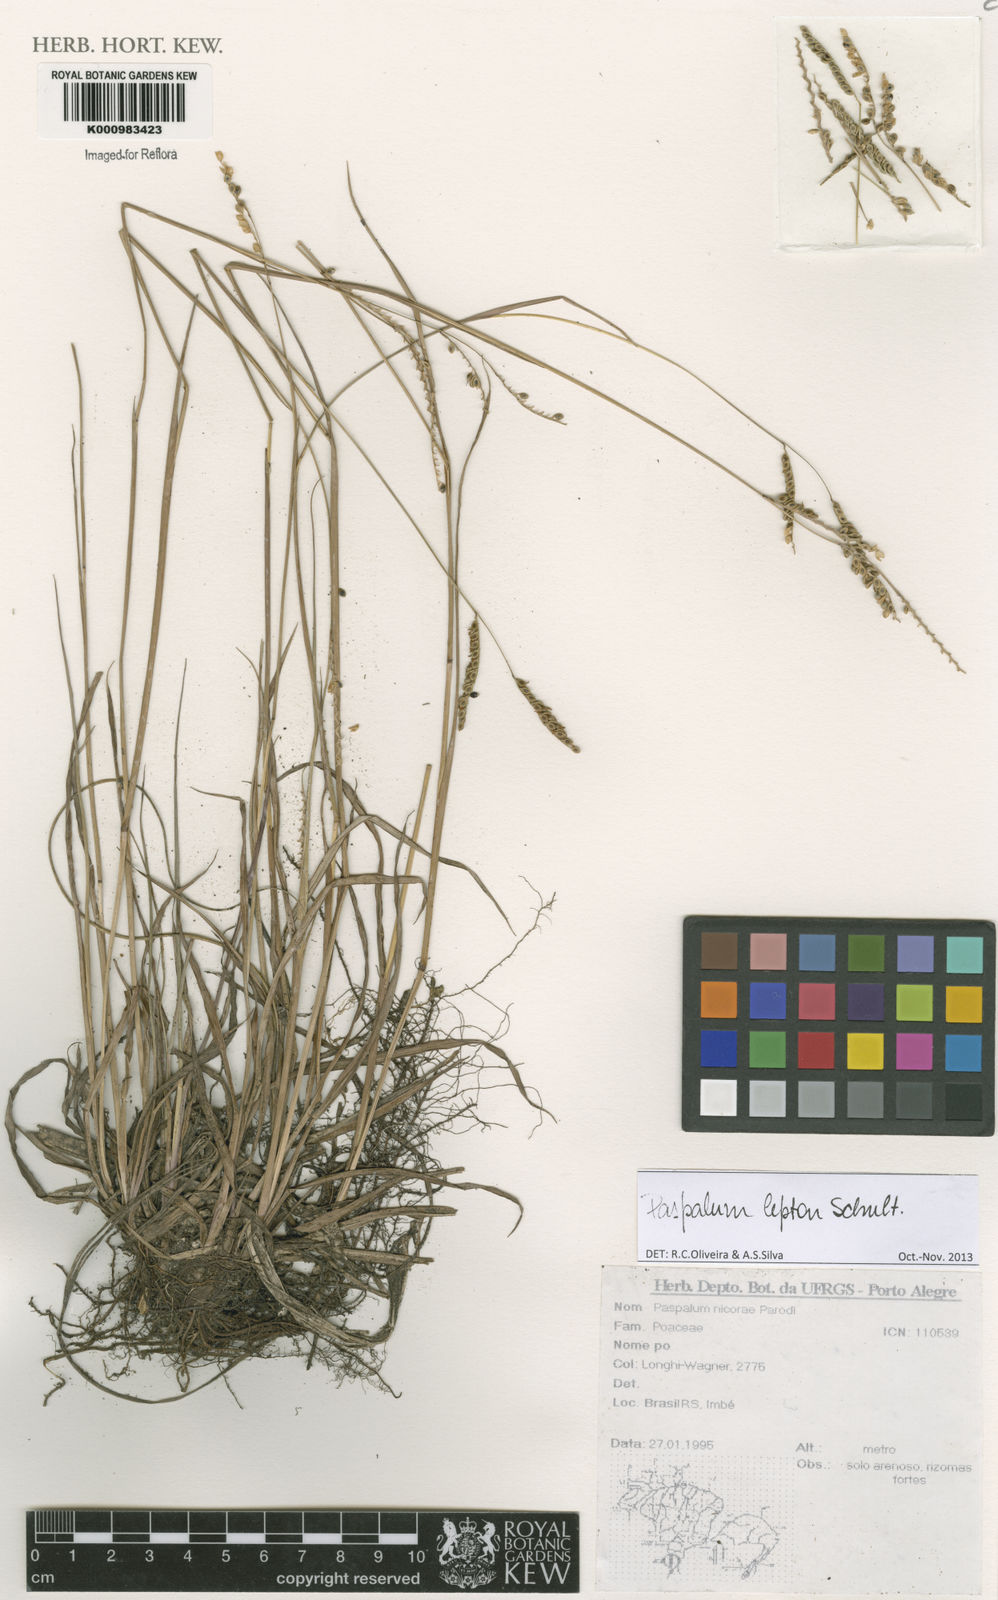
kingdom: Plantae
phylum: Tracheophyta
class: Liliopsida
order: Poales
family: Poaceae
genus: Paspalum
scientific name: Paspalum lepton
